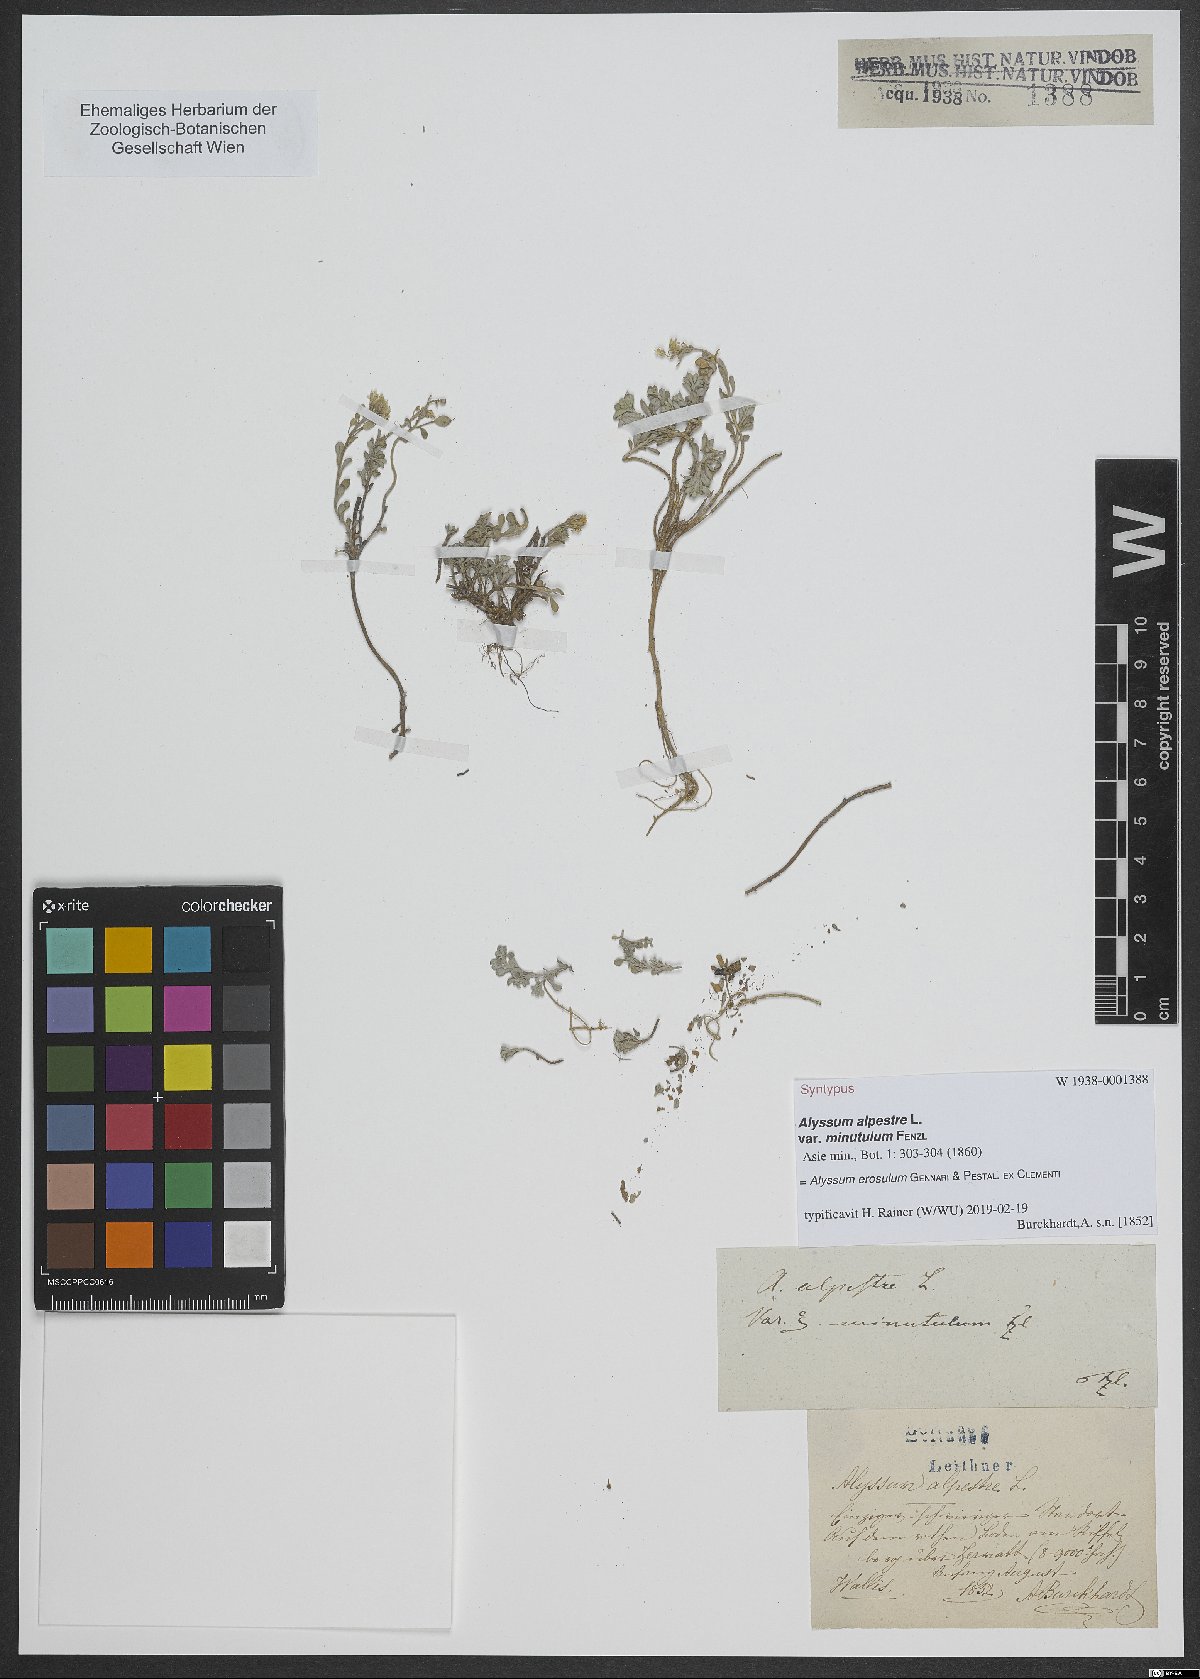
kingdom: Plantae
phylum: Tracheophyta
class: Magnoliopsida
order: Brassicales
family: Brassicaceae
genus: Alyssum
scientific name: Alyssum erosulum
